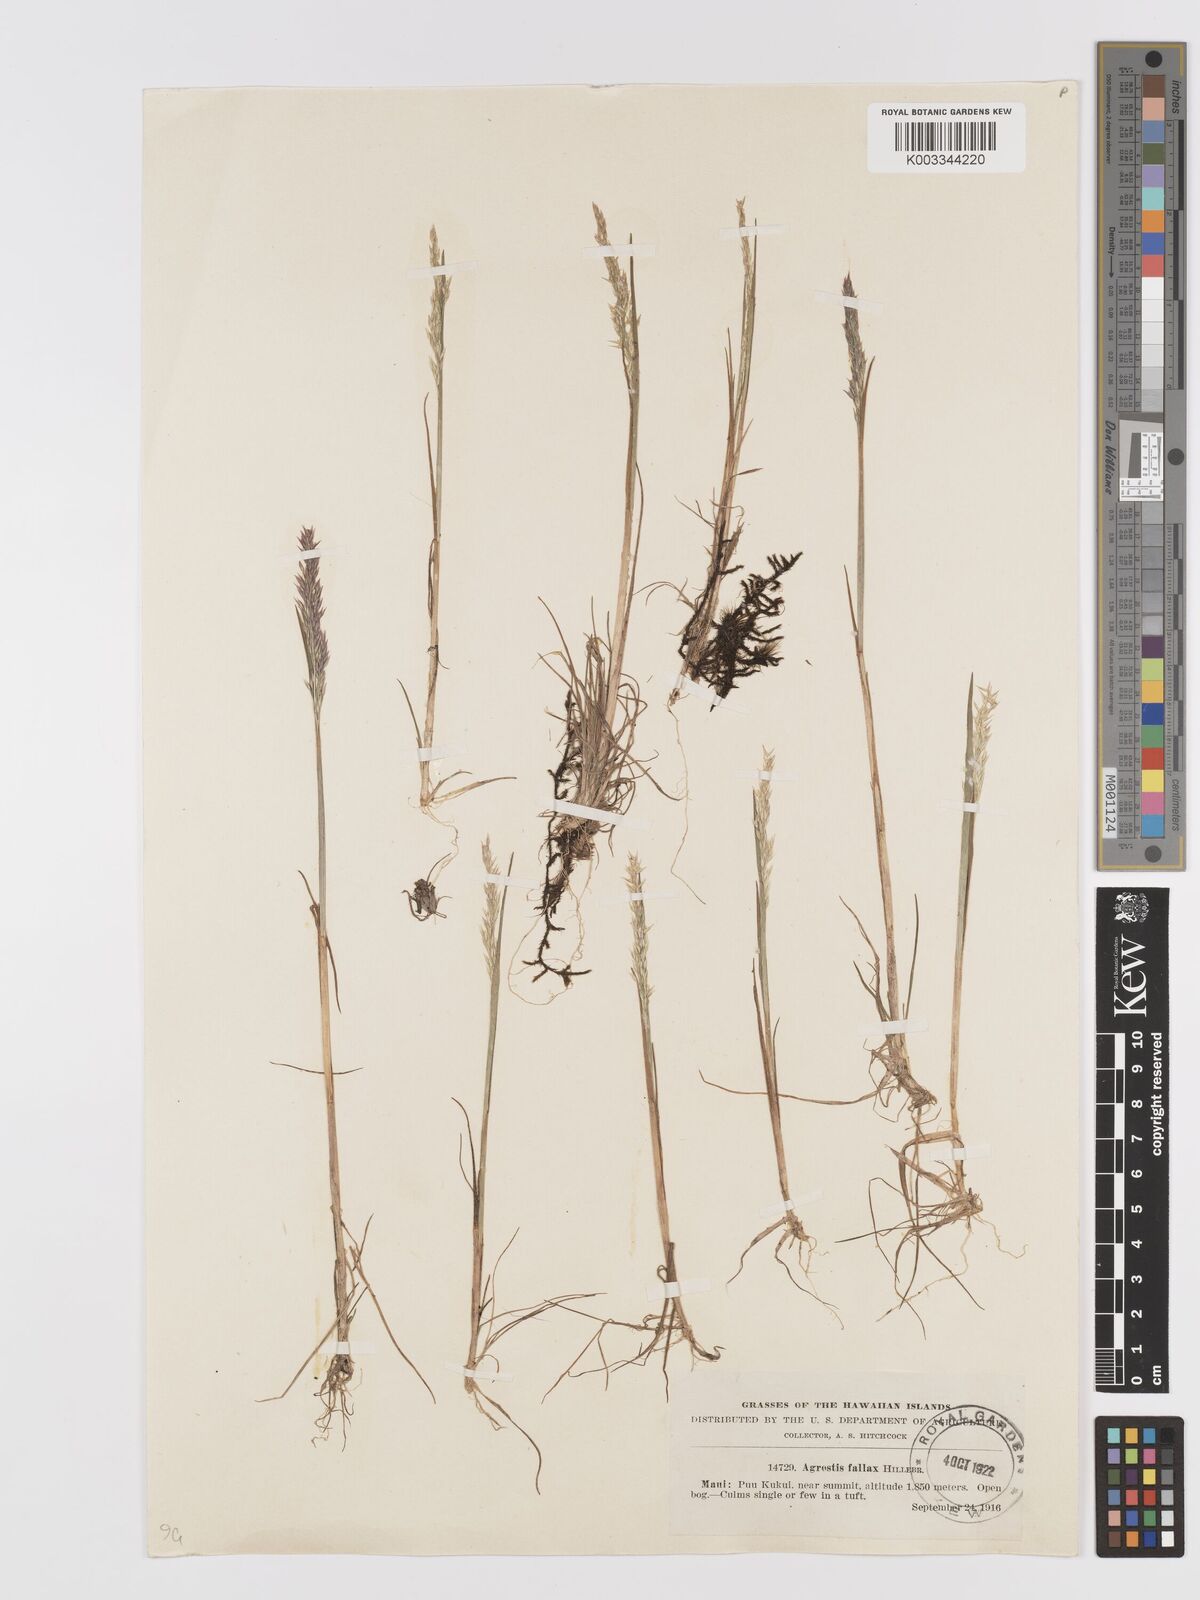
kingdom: Plantae
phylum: Tracheophyta
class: Liliopsida
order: Poales
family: Poaceae
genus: Agrostis
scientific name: Agrostis sandwicensis
